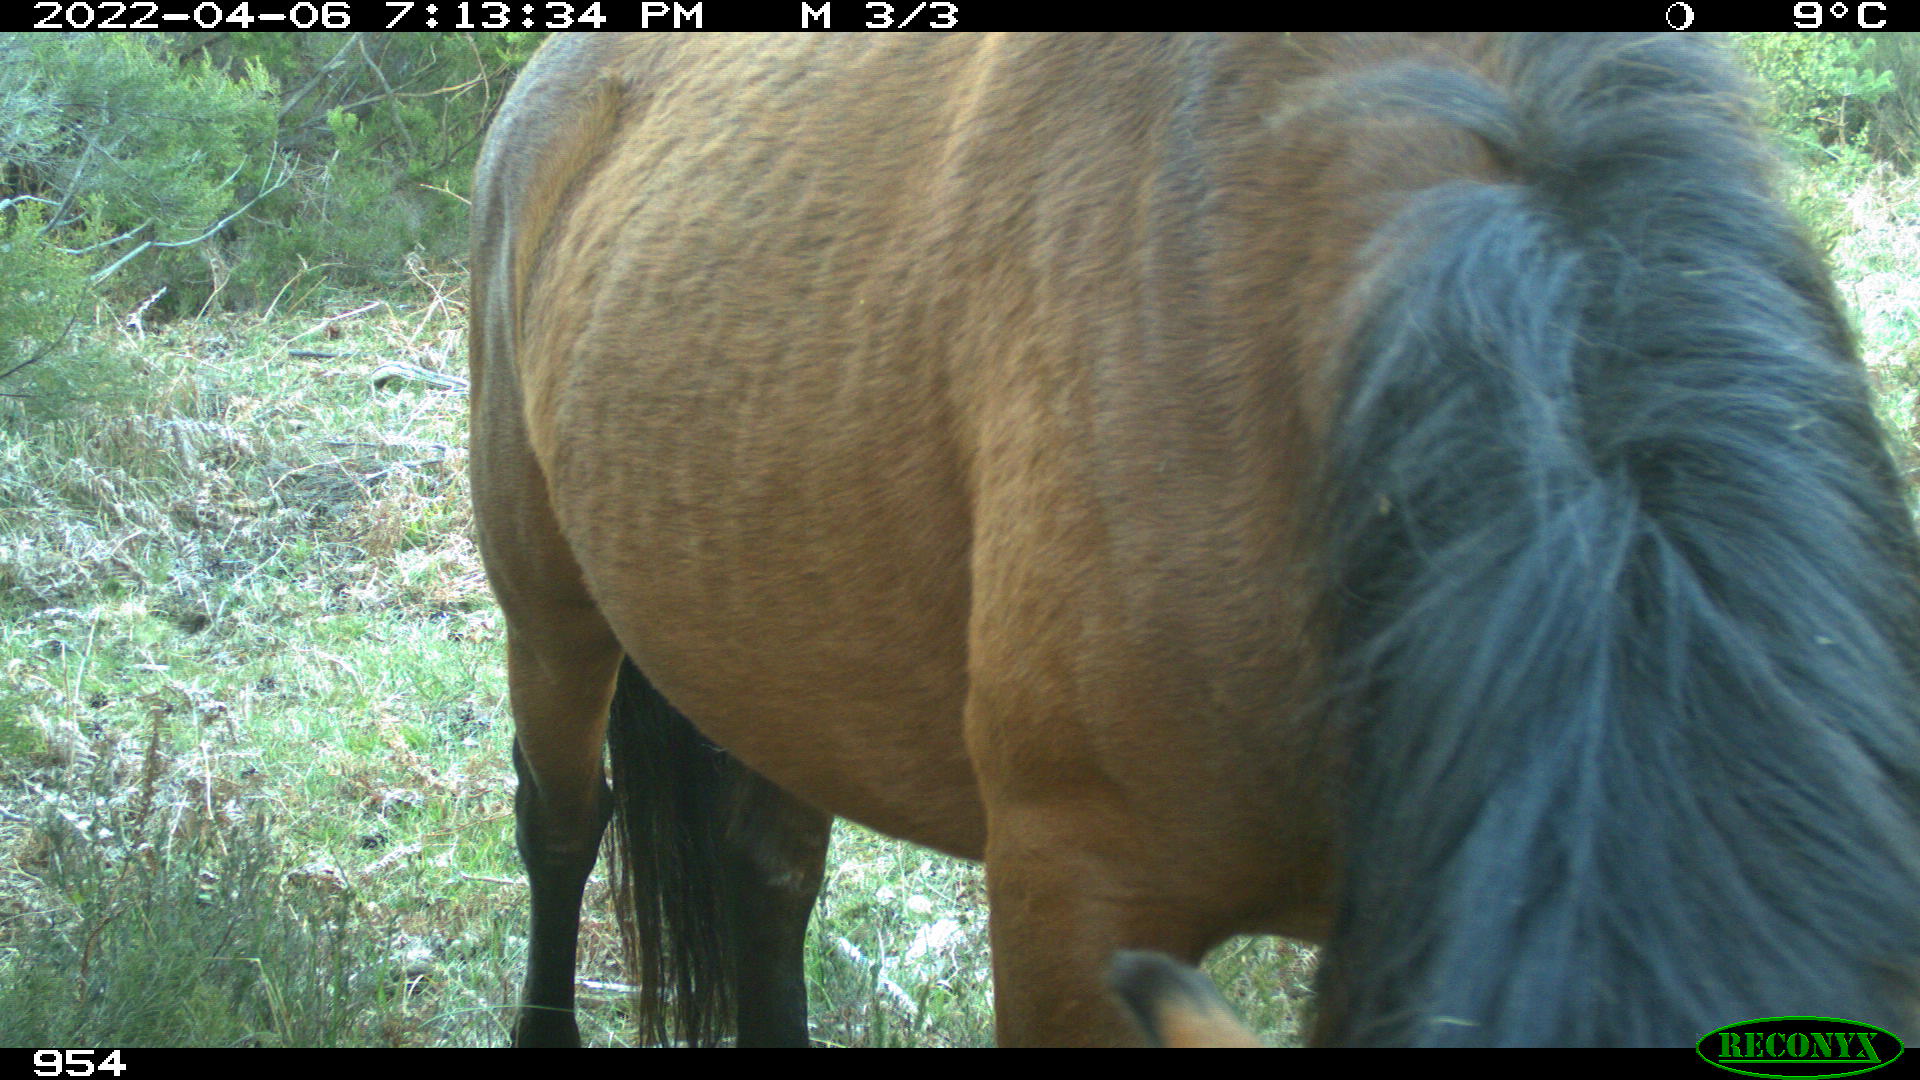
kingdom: Animalia
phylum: Chordata
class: Mammalia
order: Perissodactyla
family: Equidae
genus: Equus
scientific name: Equus caballus
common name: Horse
